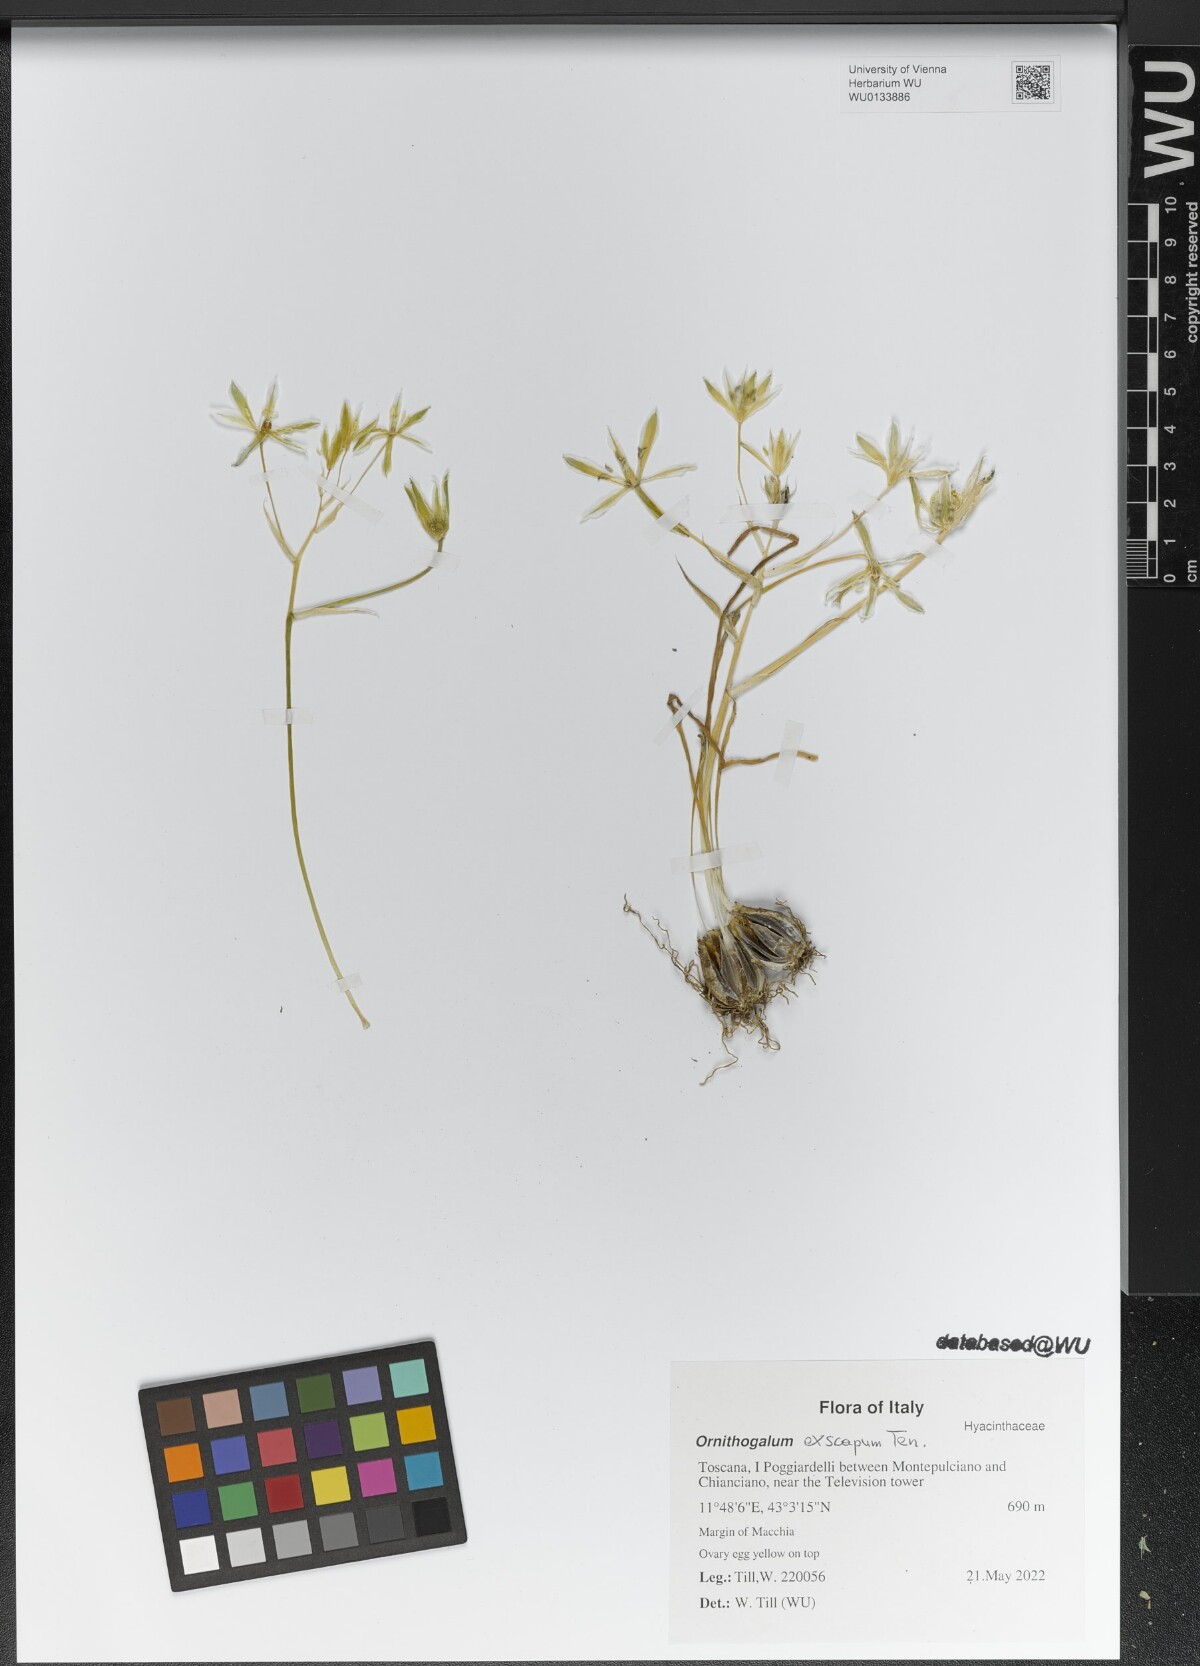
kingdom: Plantae
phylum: Tracheophyta
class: Liliopsida
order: Asparagales
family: Asparagaceae
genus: Ornithogalum
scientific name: Ornithogalum exscapum
